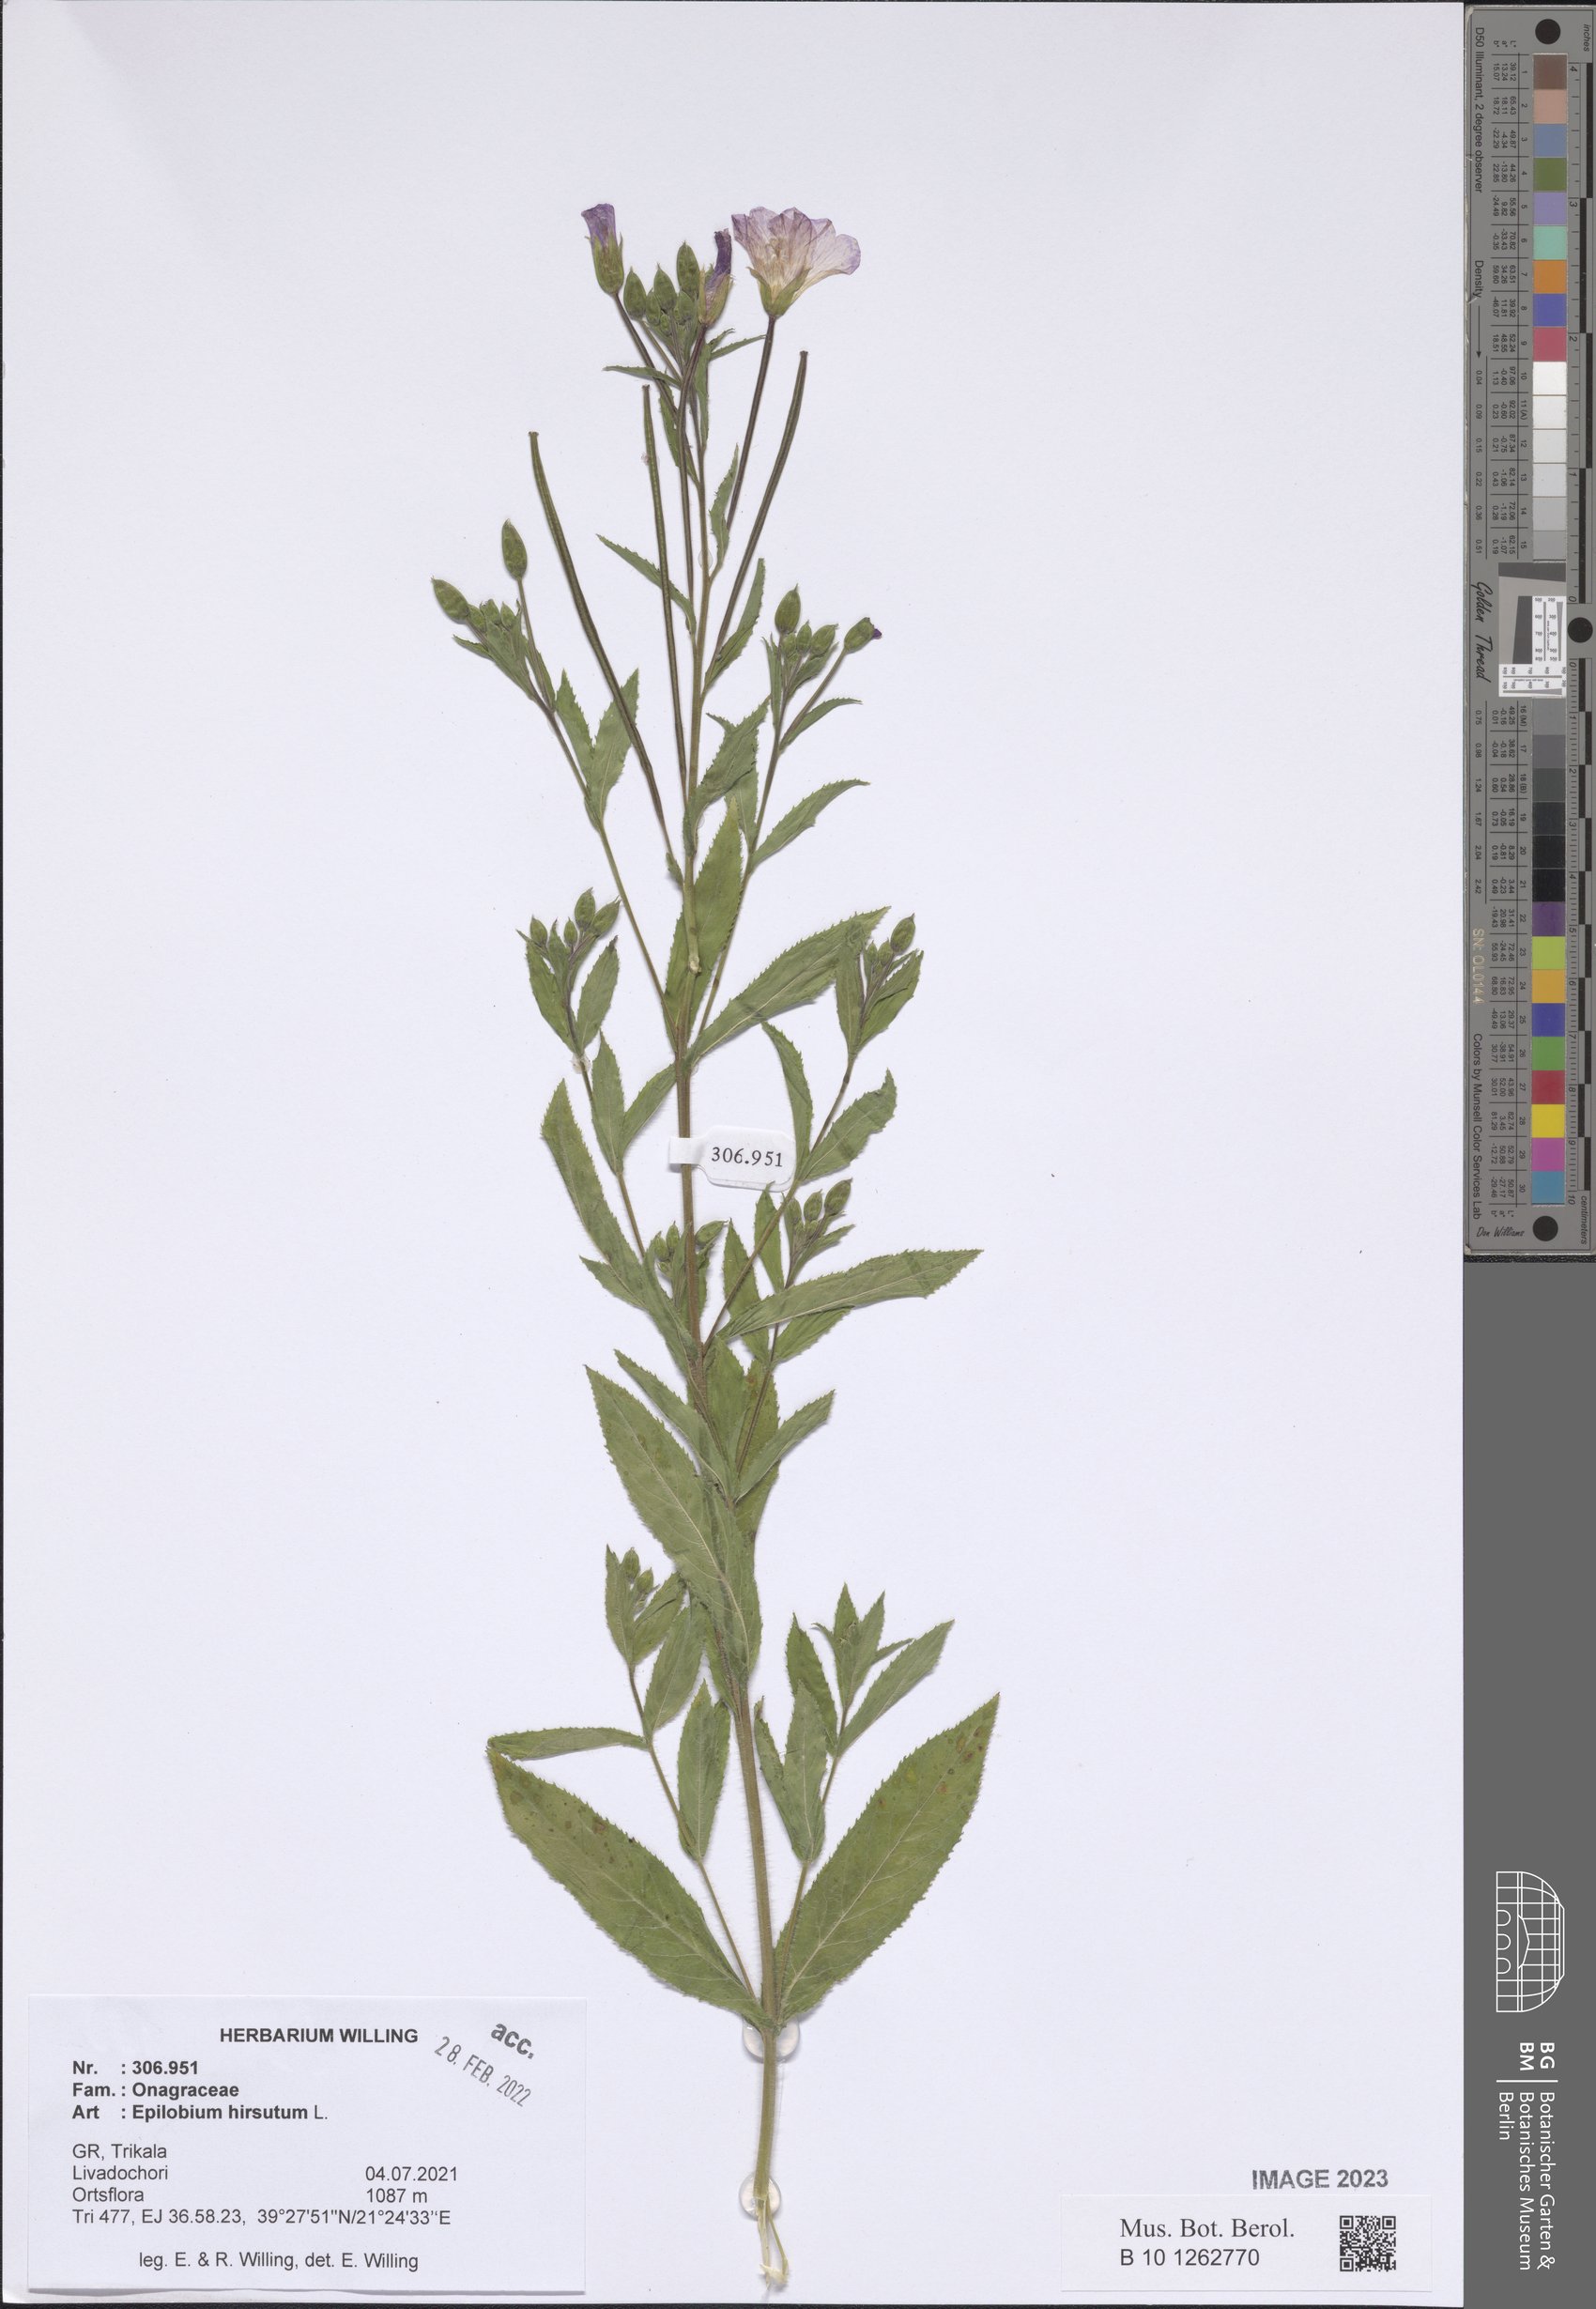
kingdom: Plantae
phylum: Tracheophyta
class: Magnoliopsida
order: Myrtales
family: Onagraceae
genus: Epilobium
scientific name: Epilobium hirsutum
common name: Great willowherb
